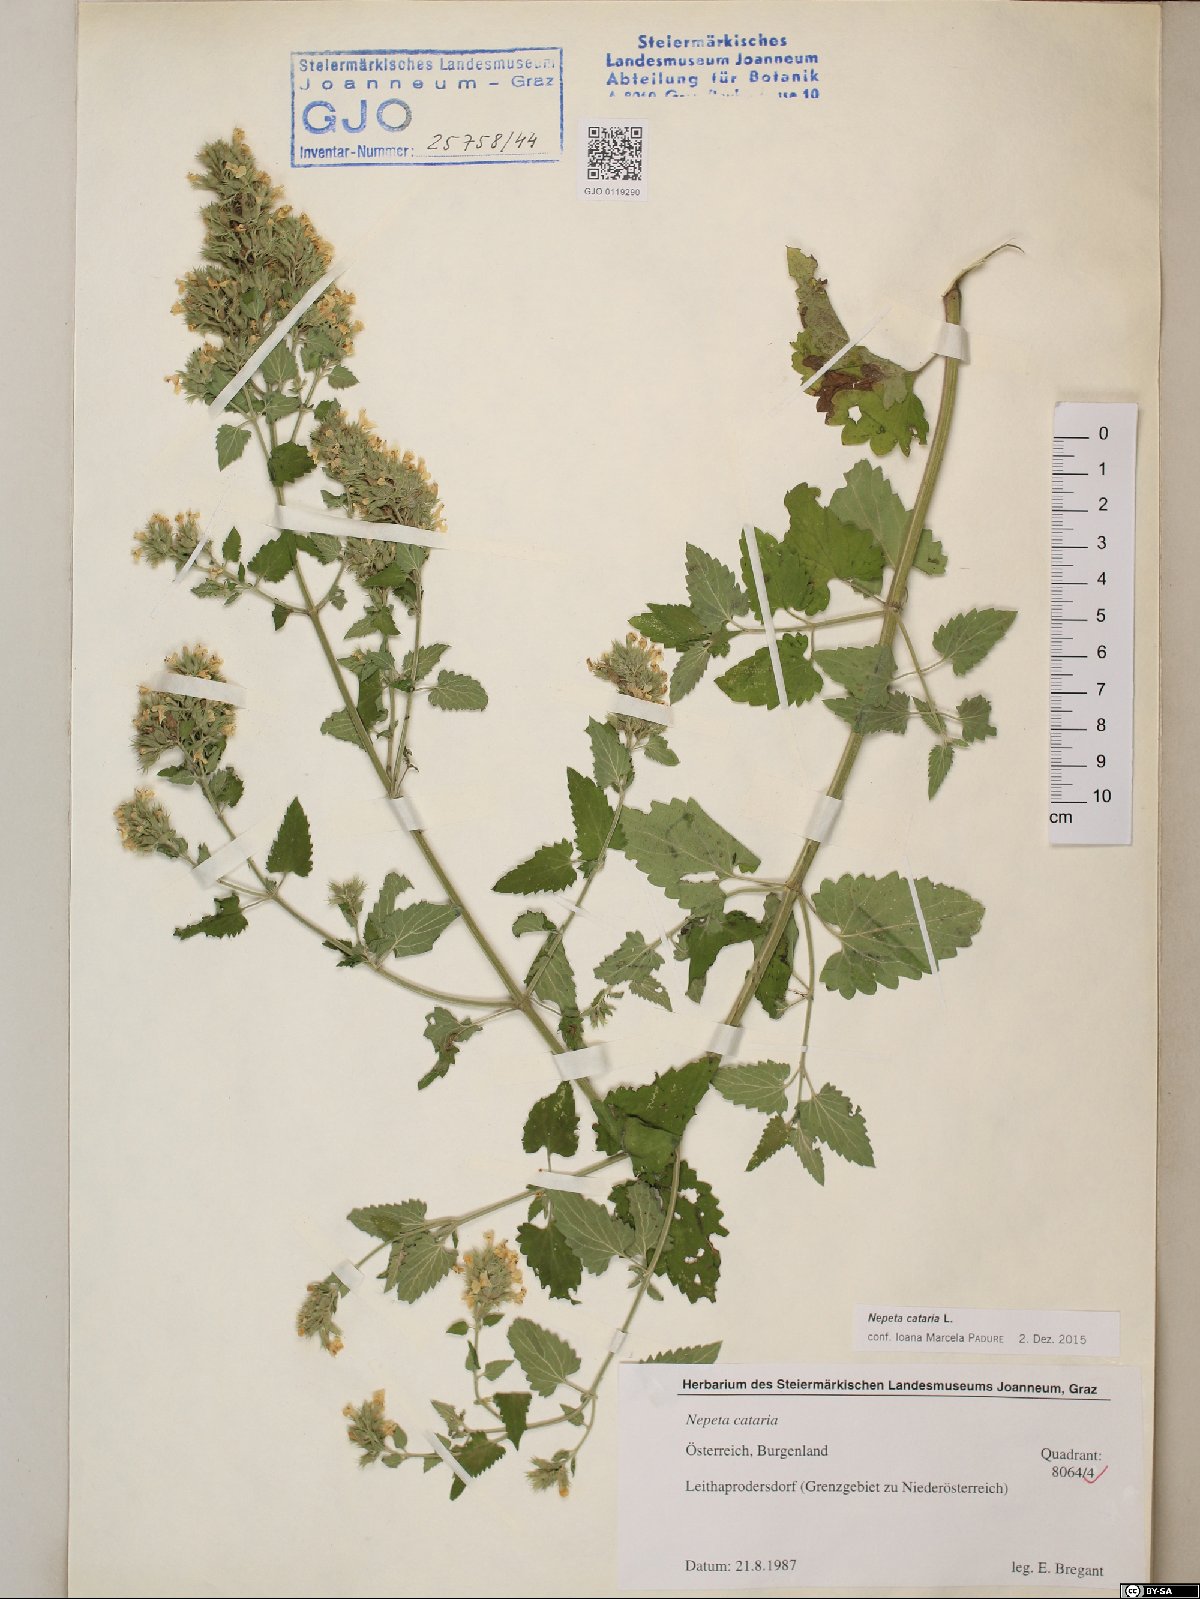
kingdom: Plantae
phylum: Tracheophyta
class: Magnoliopsida
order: Lamiales
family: Lamiaceae
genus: Nepeta
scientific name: Nepeta cataria
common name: Catnip
